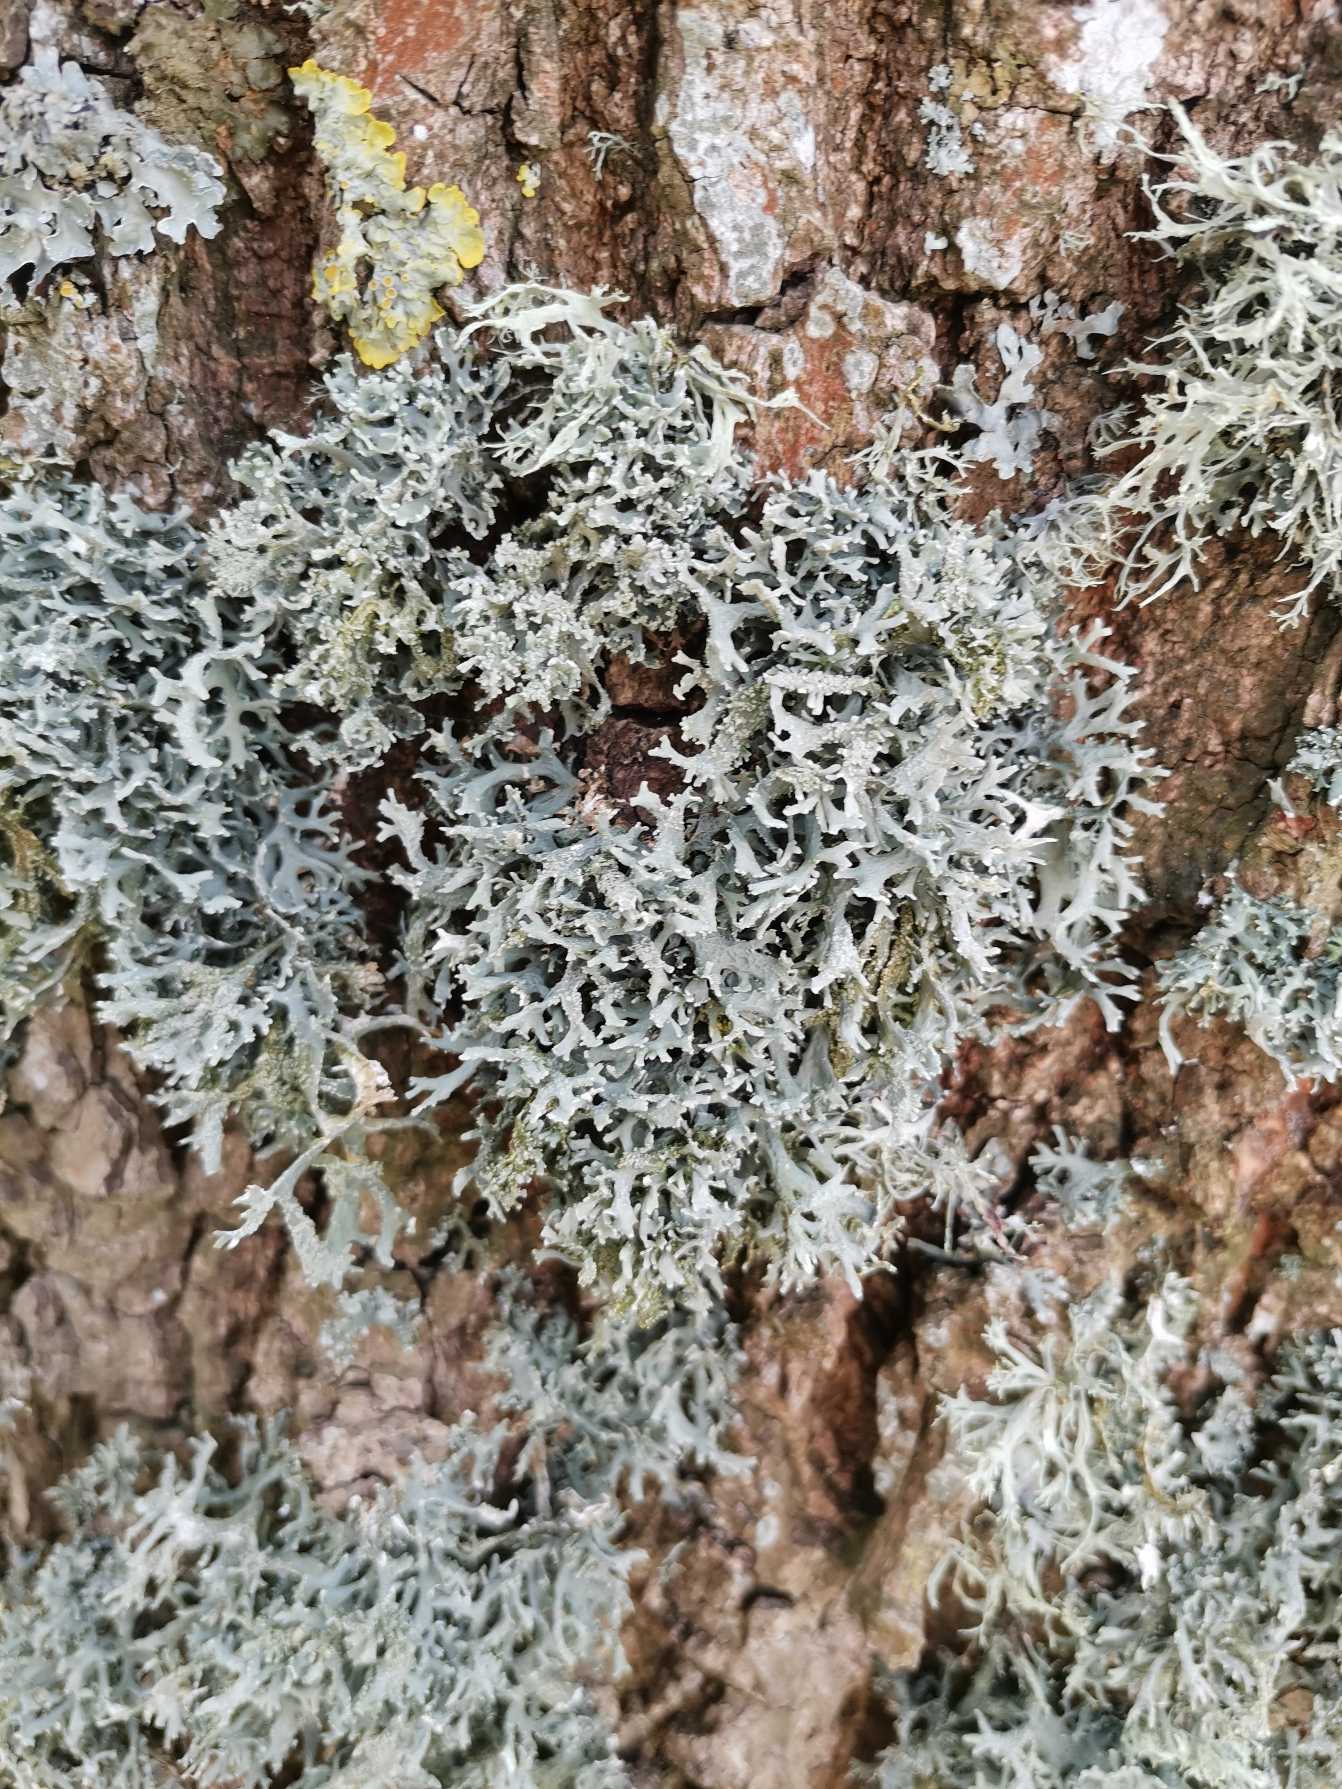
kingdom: Fungi
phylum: Ascomycota
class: Lecanoromycetes
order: Lecanorales
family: Parmeliaceae
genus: Evernia
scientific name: Evernia prunastri
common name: Almindelig slåenlav
